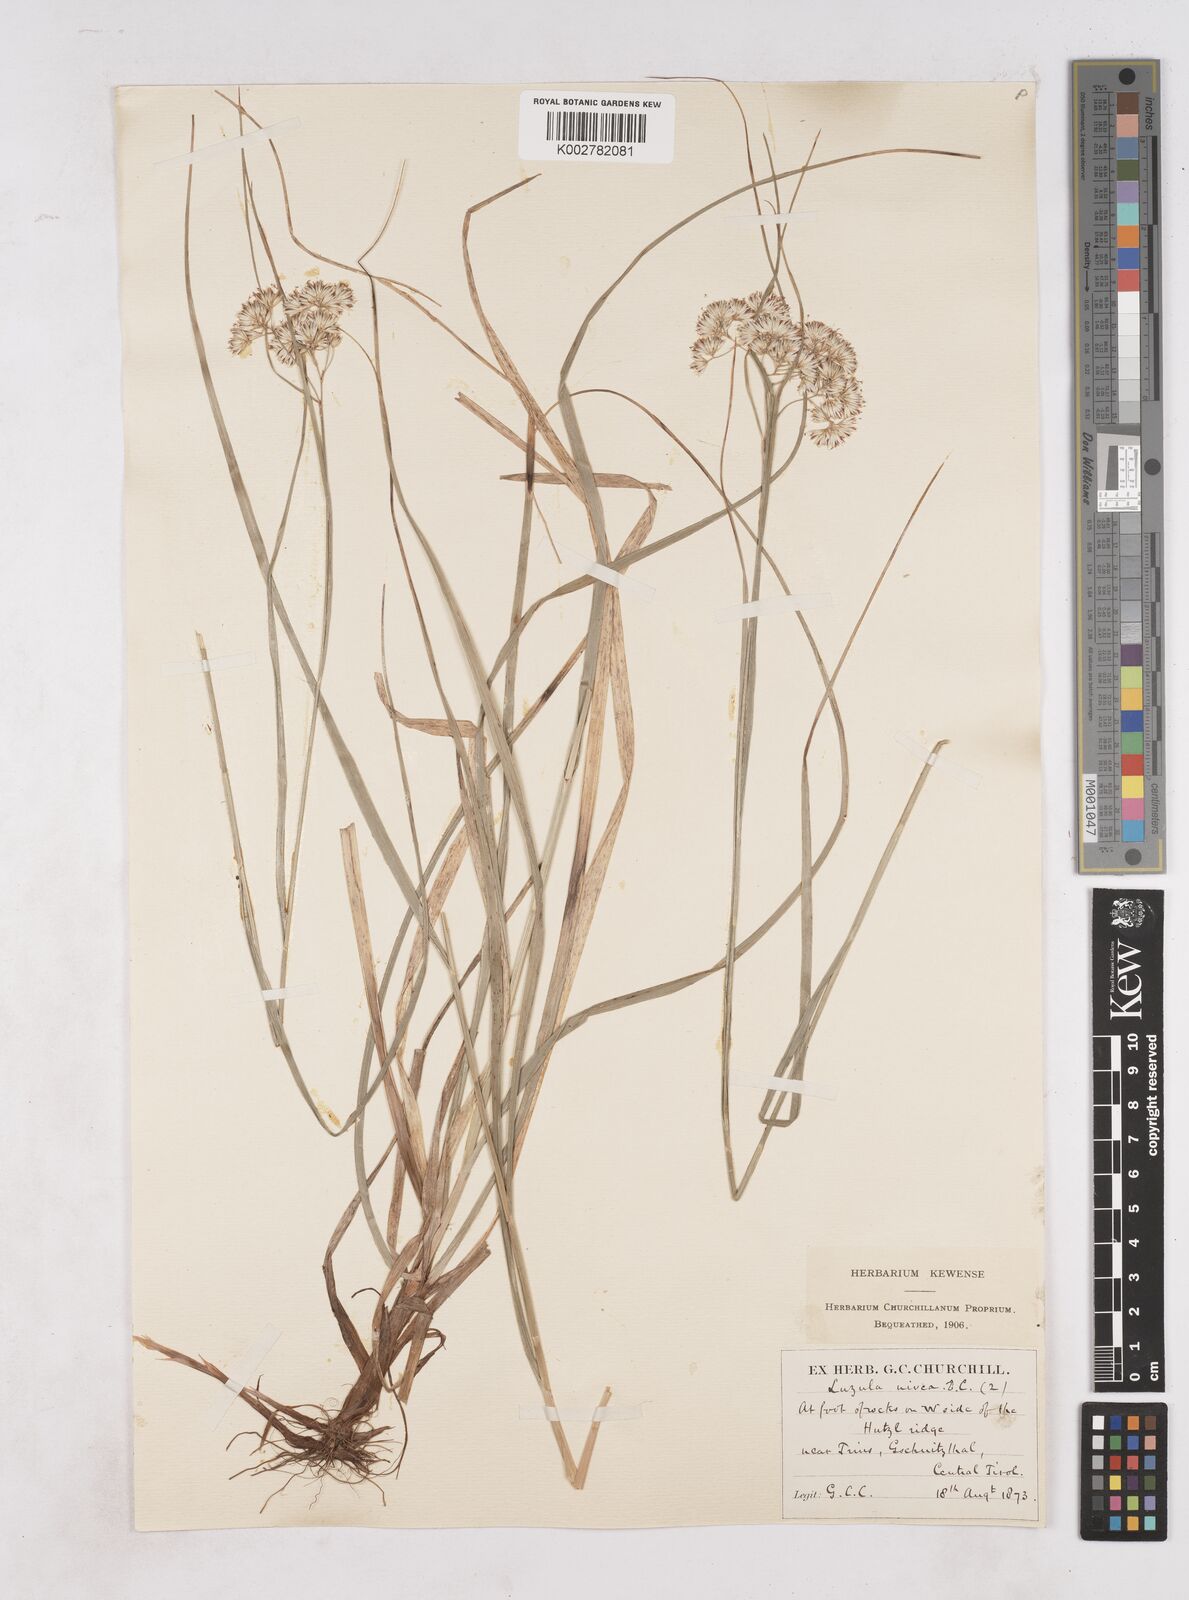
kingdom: Plantae
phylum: Tracheophyta
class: Liliopsida
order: Poales
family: Juncaceae
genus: Luzula
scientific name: Luzula nivea
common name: Snow-white wood-rush
